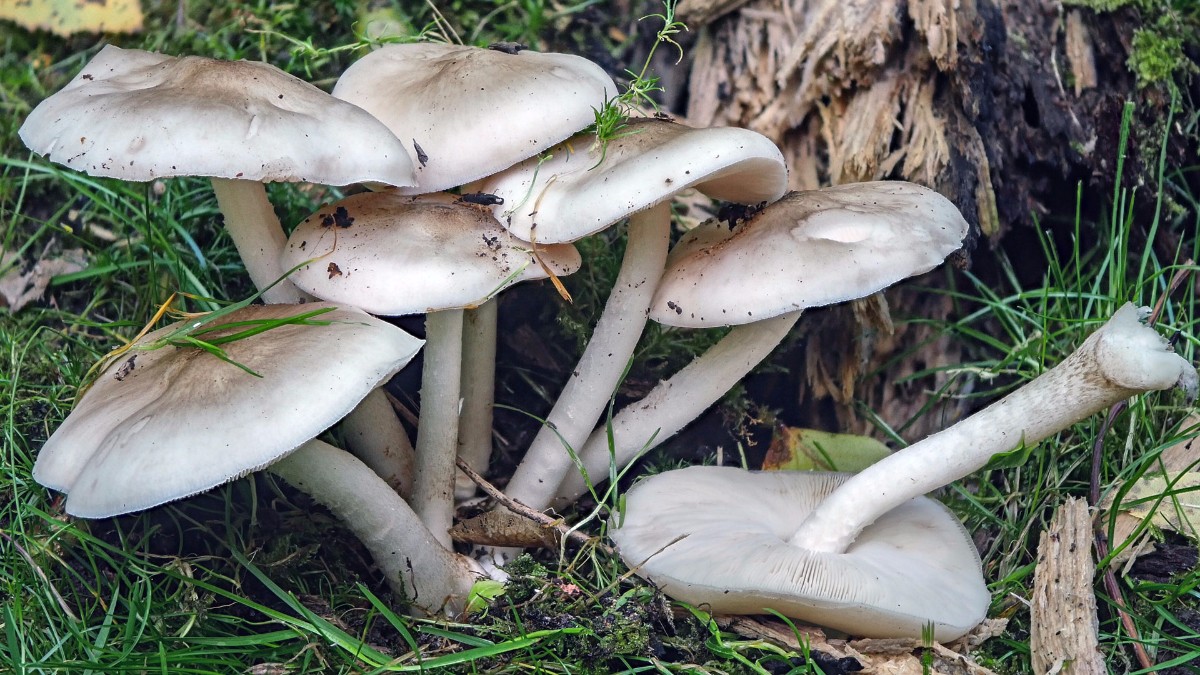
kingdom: Fungi
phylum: Basidiomycota
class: Agaricomycetes
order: Agaricales
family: Pluteaceae
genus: Pluteus
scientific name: Pluteus
